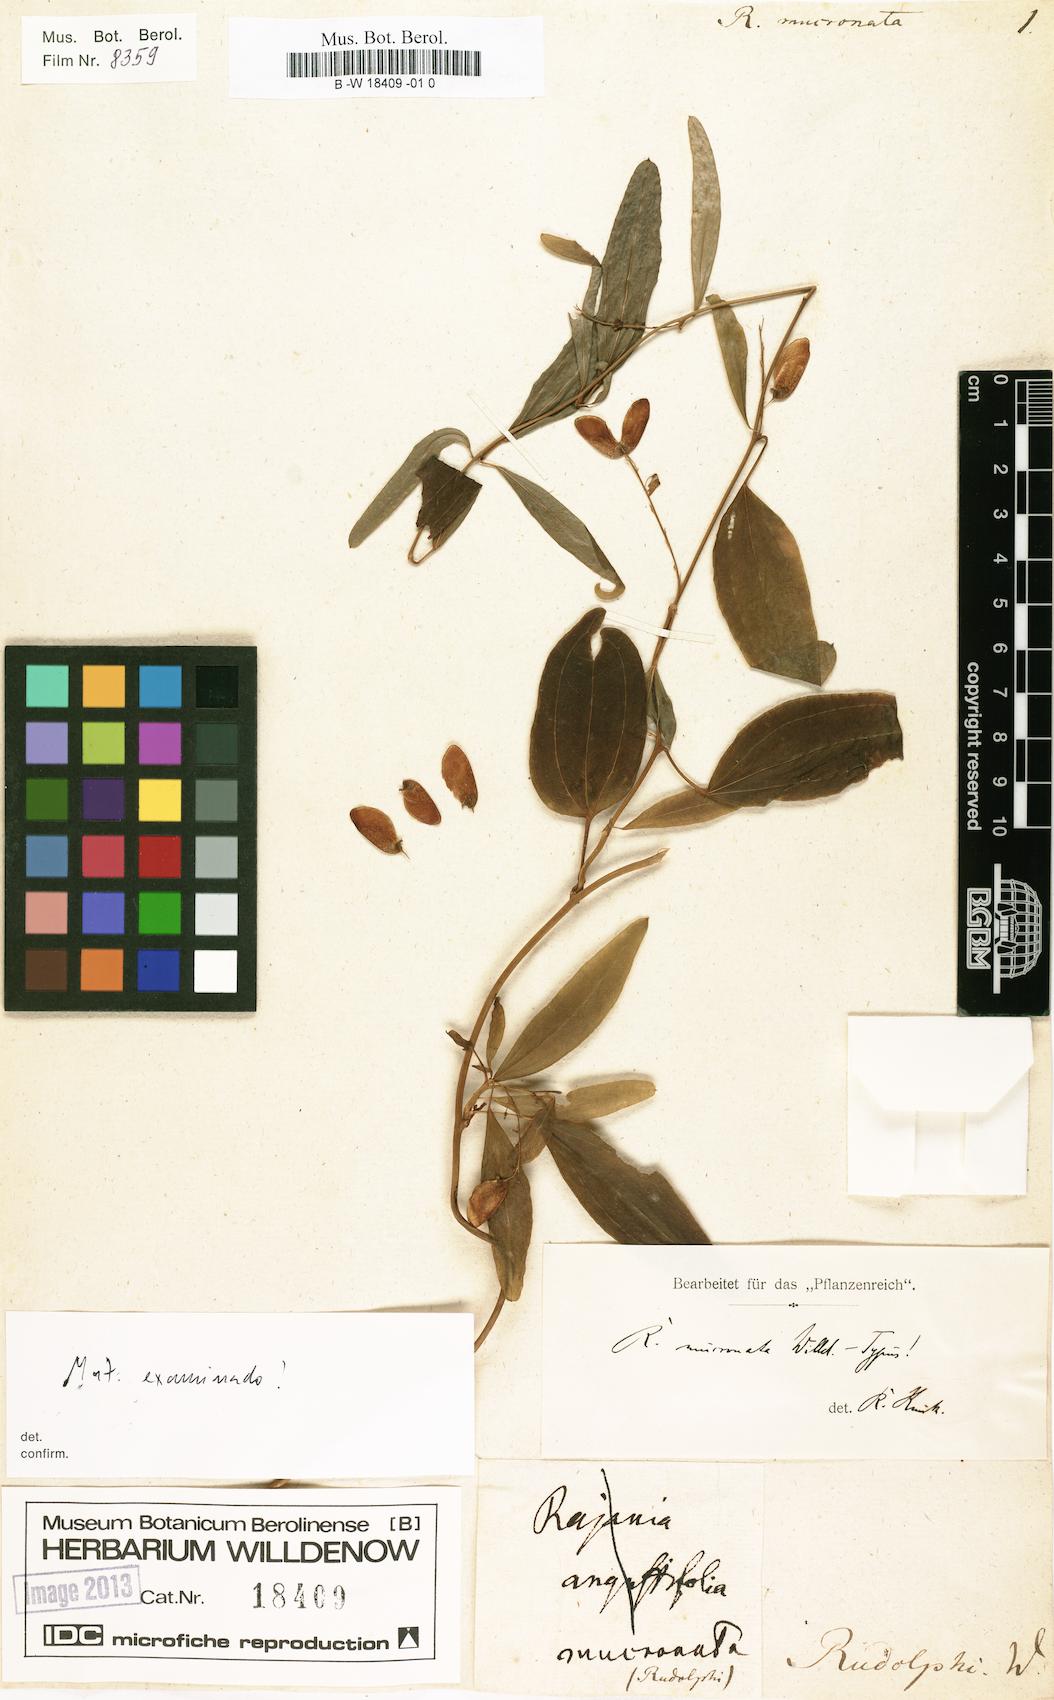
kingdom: Plantae
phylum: Tracheophyta
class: Liliopsida
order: Dioscoreales
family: Dioscoreaceae
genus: Dioscorea
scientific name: Dioscorea quinquefolia
